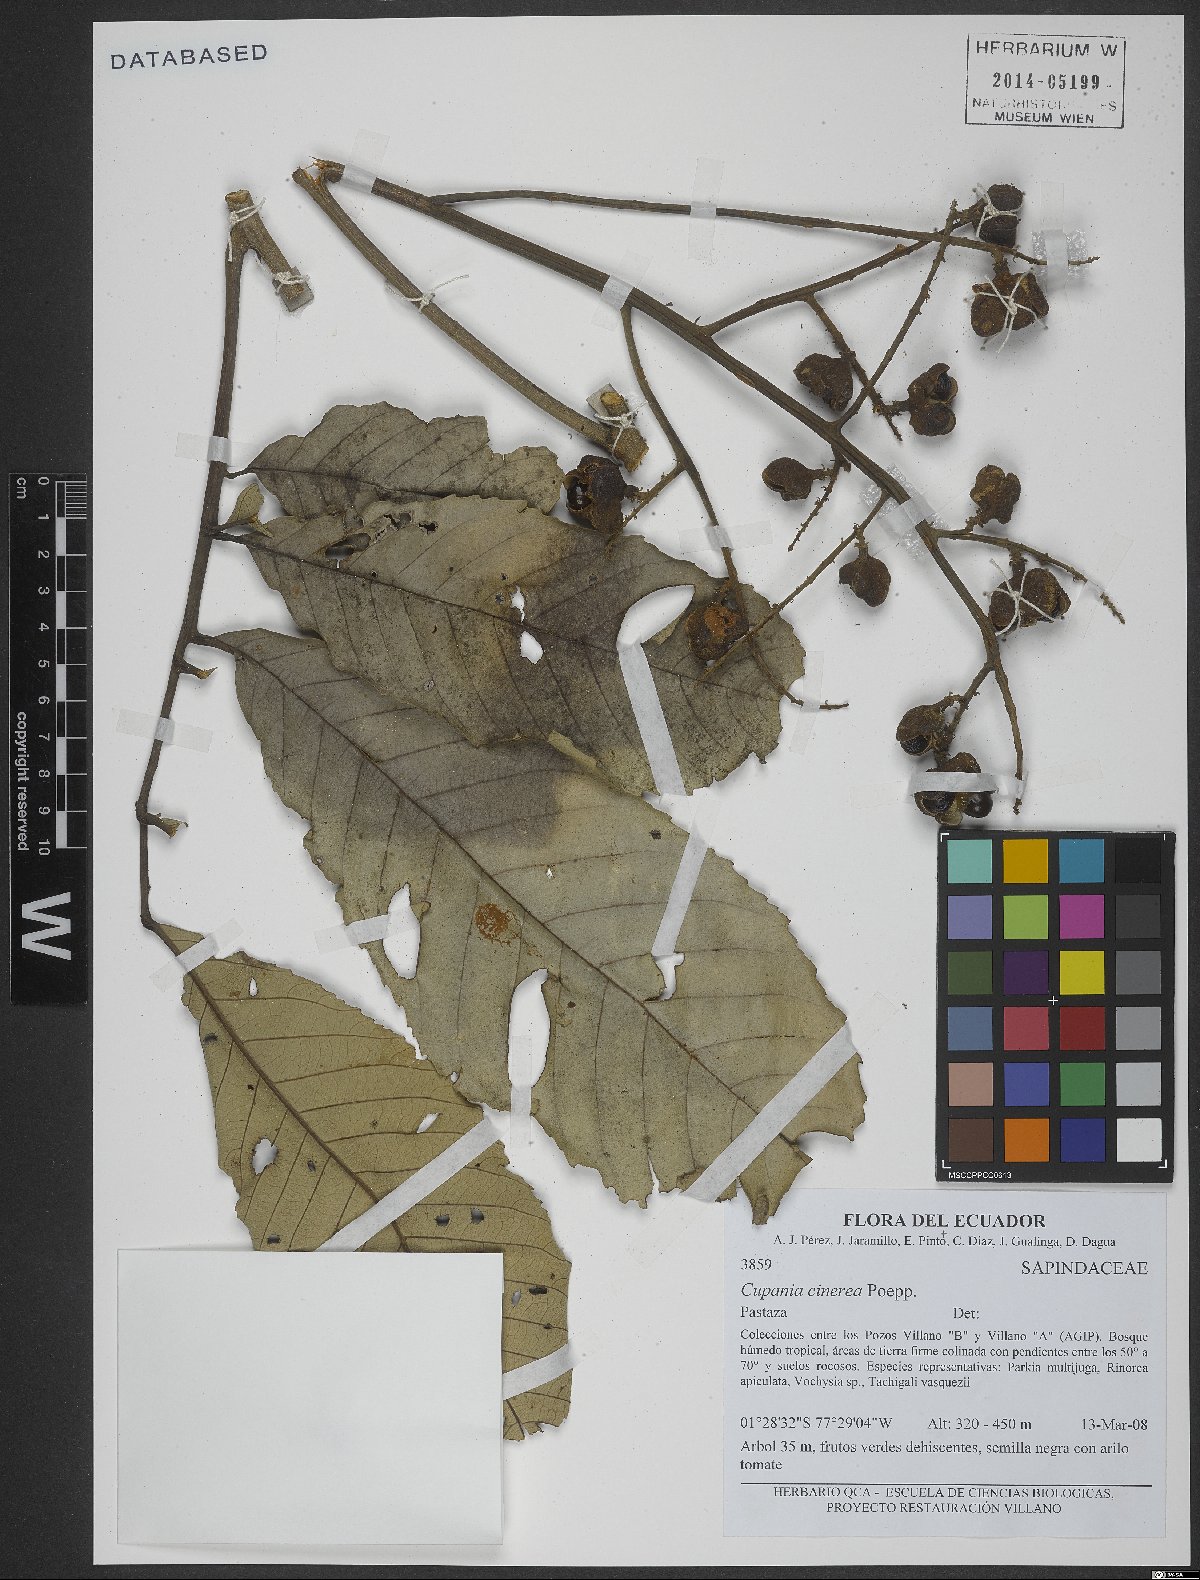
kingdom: Plantae
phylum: Tracheophyta
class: Magnoliopsida
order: Sapindales
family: Sapindaceae
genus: Cupania
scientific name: Cupania cinerea
